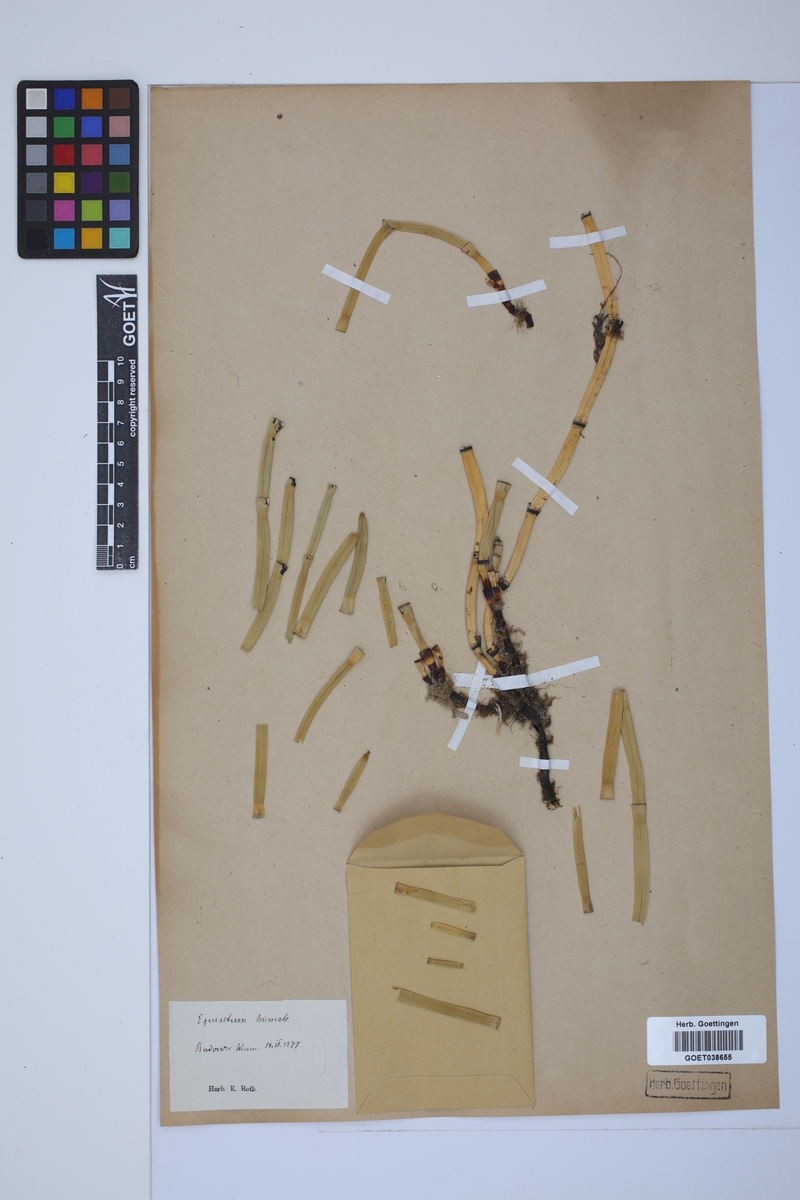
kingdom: Plantae
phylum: Tracheophyta
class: Polypodiopsida
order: Equisetales
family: Equisetaceae
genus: Equisetum
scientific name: Equisetum hyemale
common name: Rough horsetail
